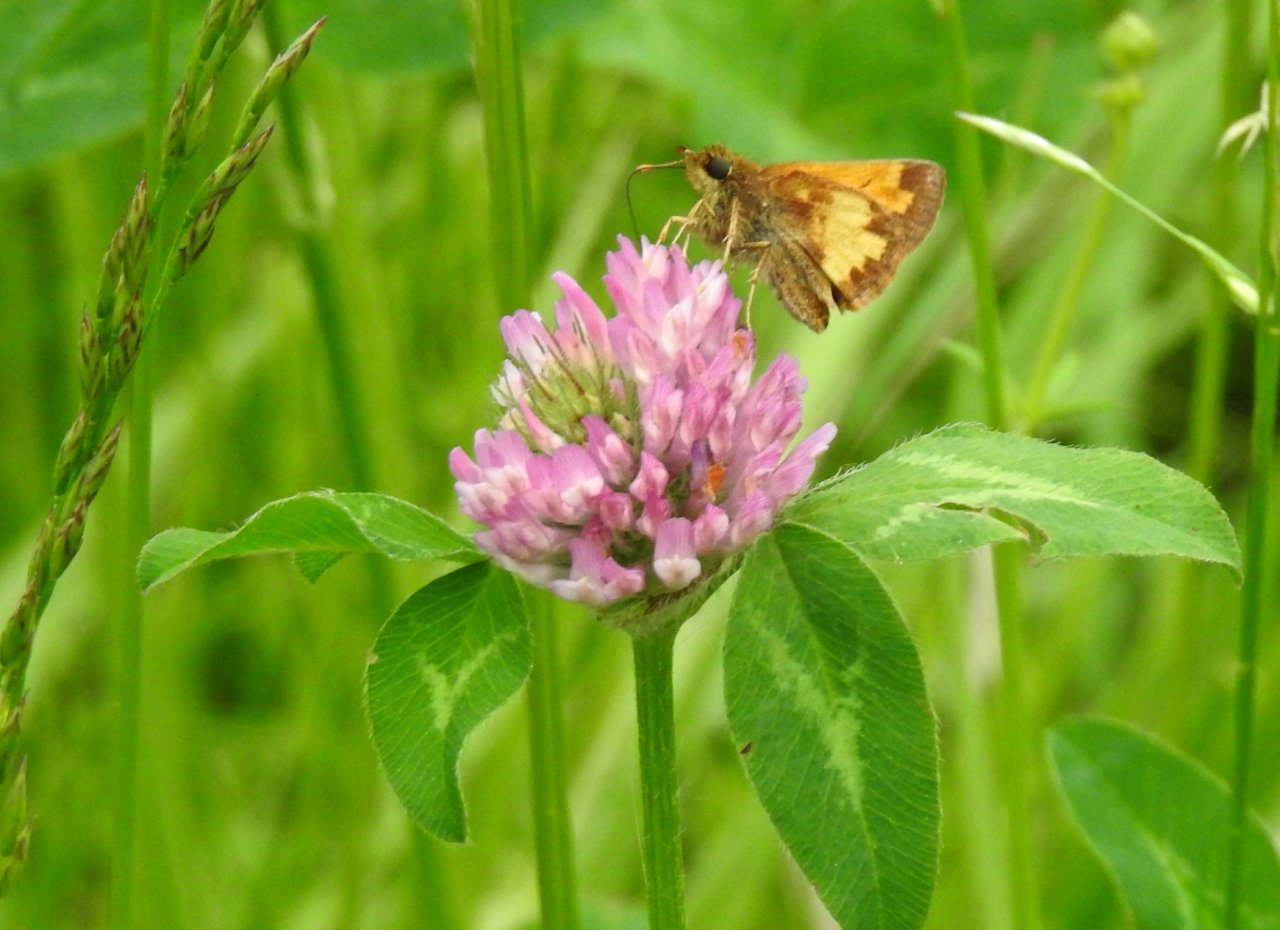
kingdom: Animalia
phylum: Arthropoda
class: Insecta
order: Lepidoptera
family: Hesperiidae
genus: Lon
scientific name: Lon hobomok
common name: Hobomok Skipper
